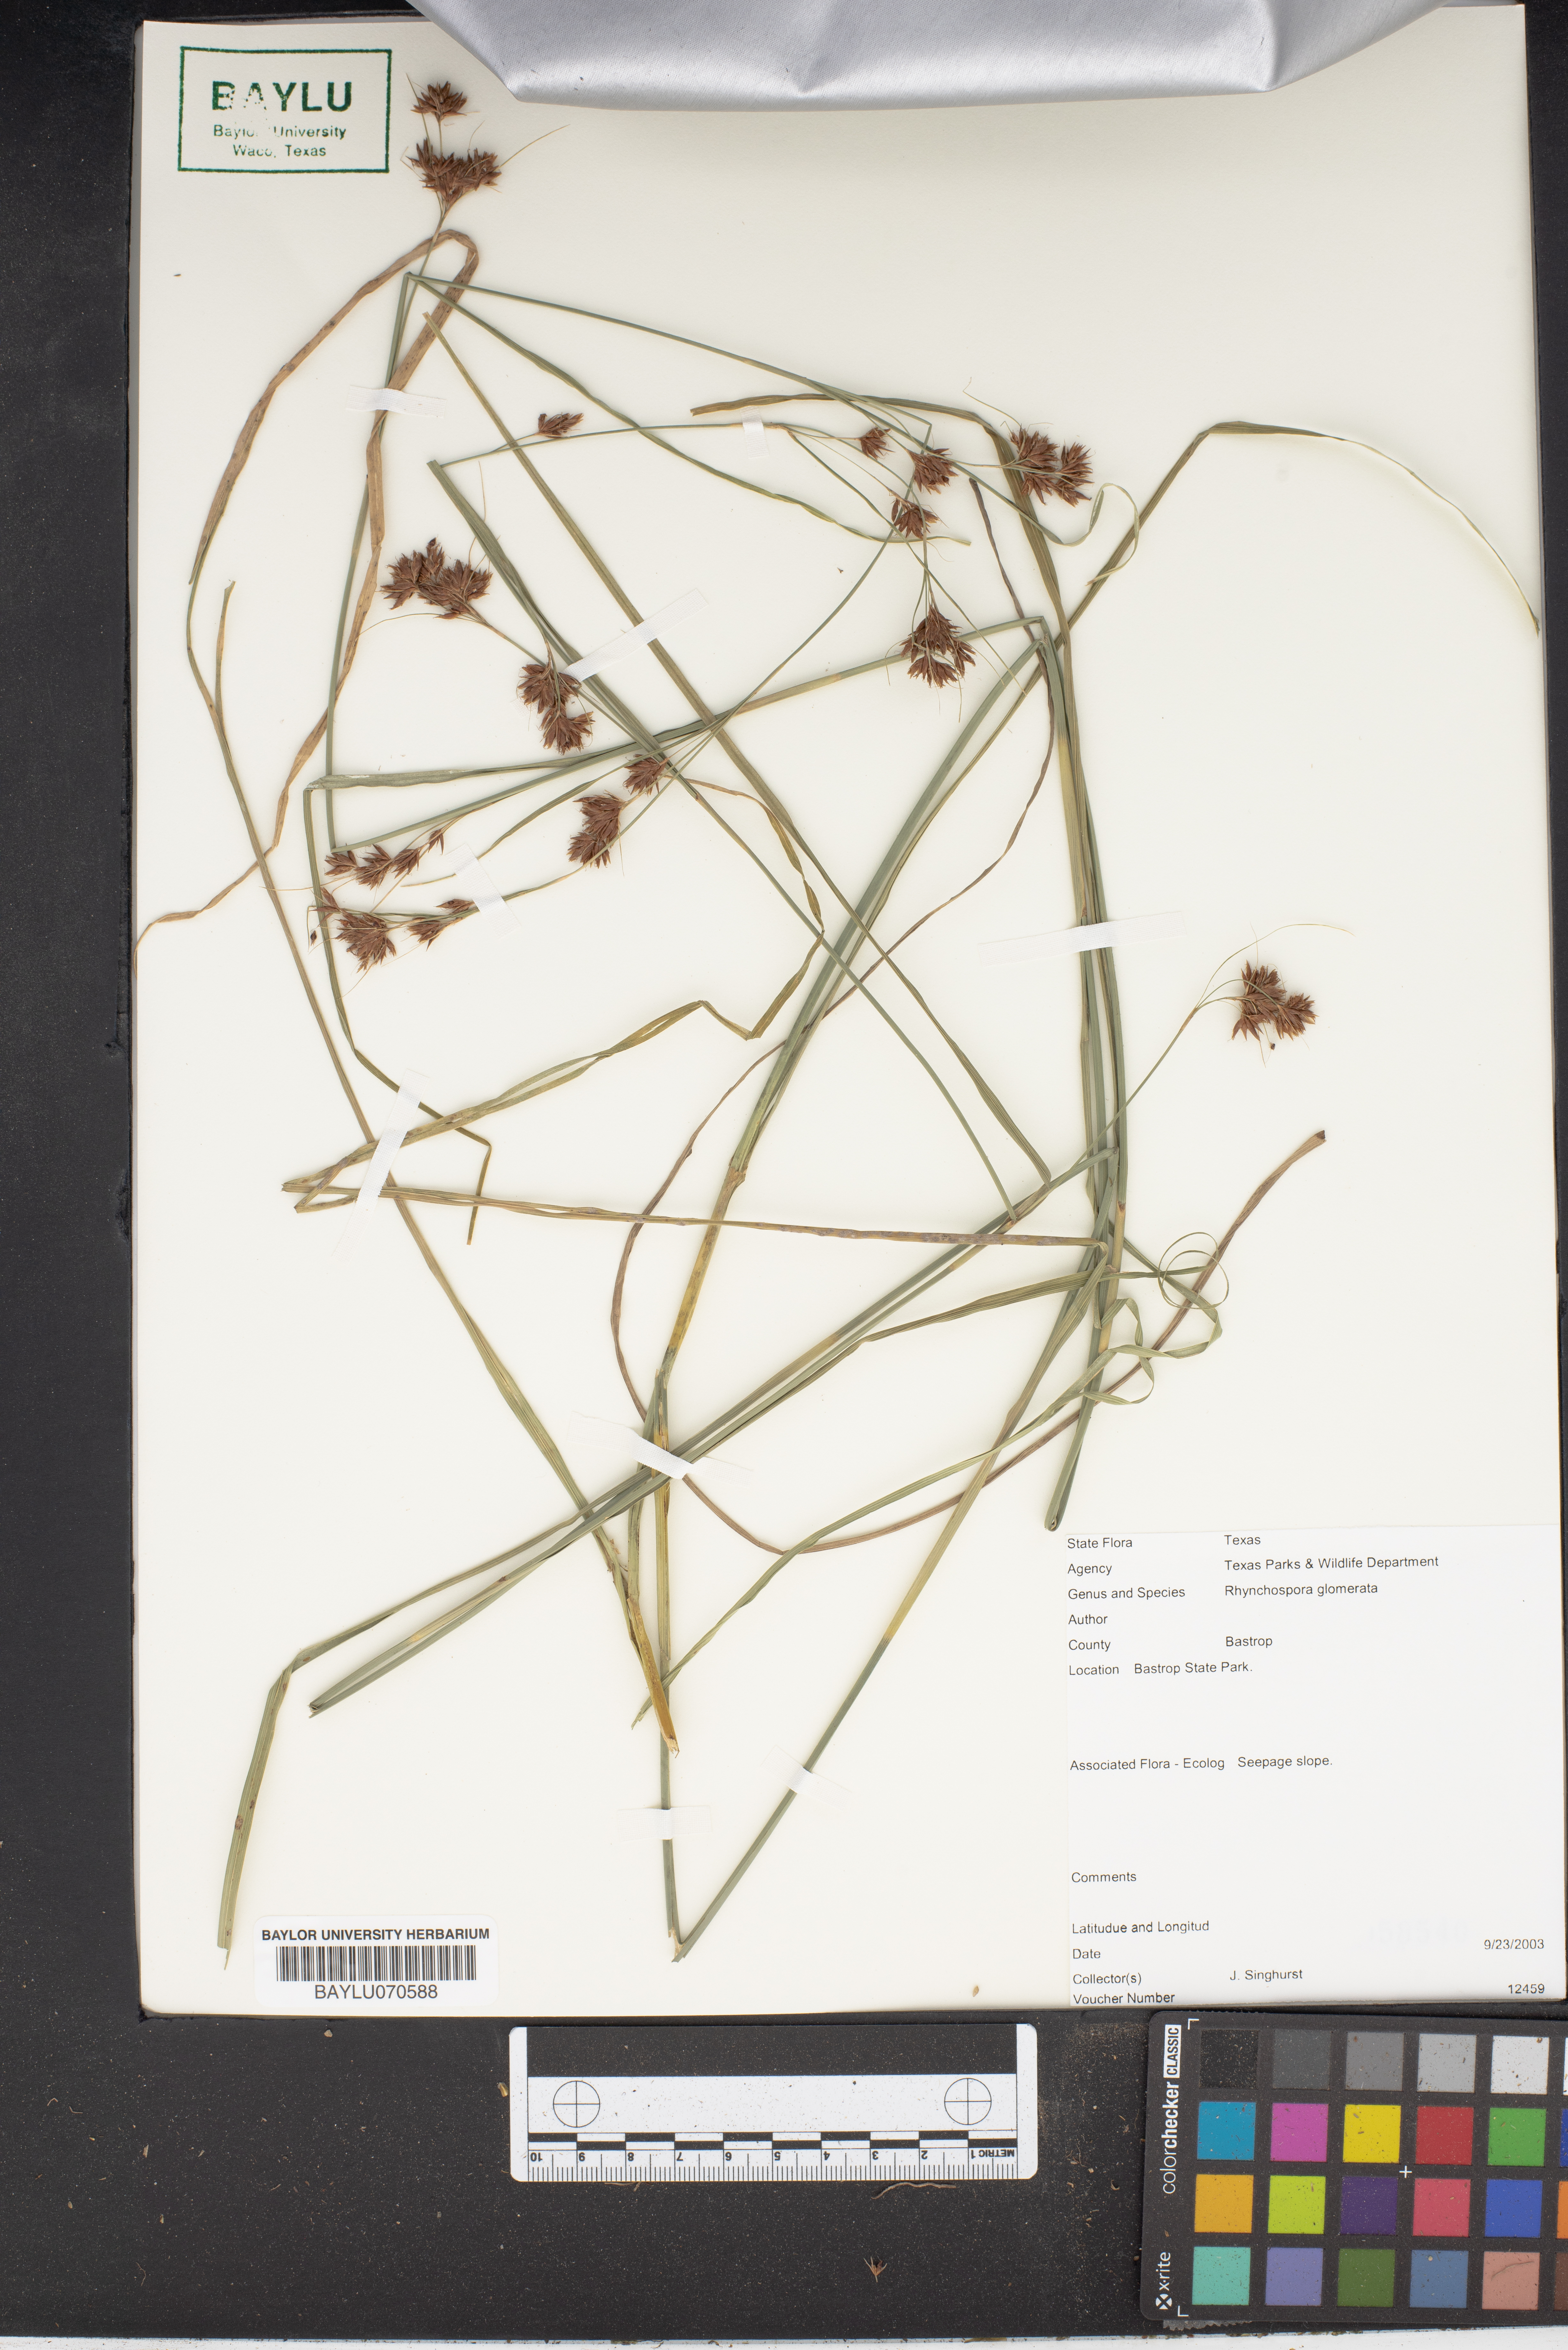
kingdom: Plantae
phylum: Tracheophyta
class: Liliopsida
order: Poales
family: Cyperaceae
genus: Rhynchospora
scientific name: Rhynchospora glomerata
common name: Cluster beak sedge
